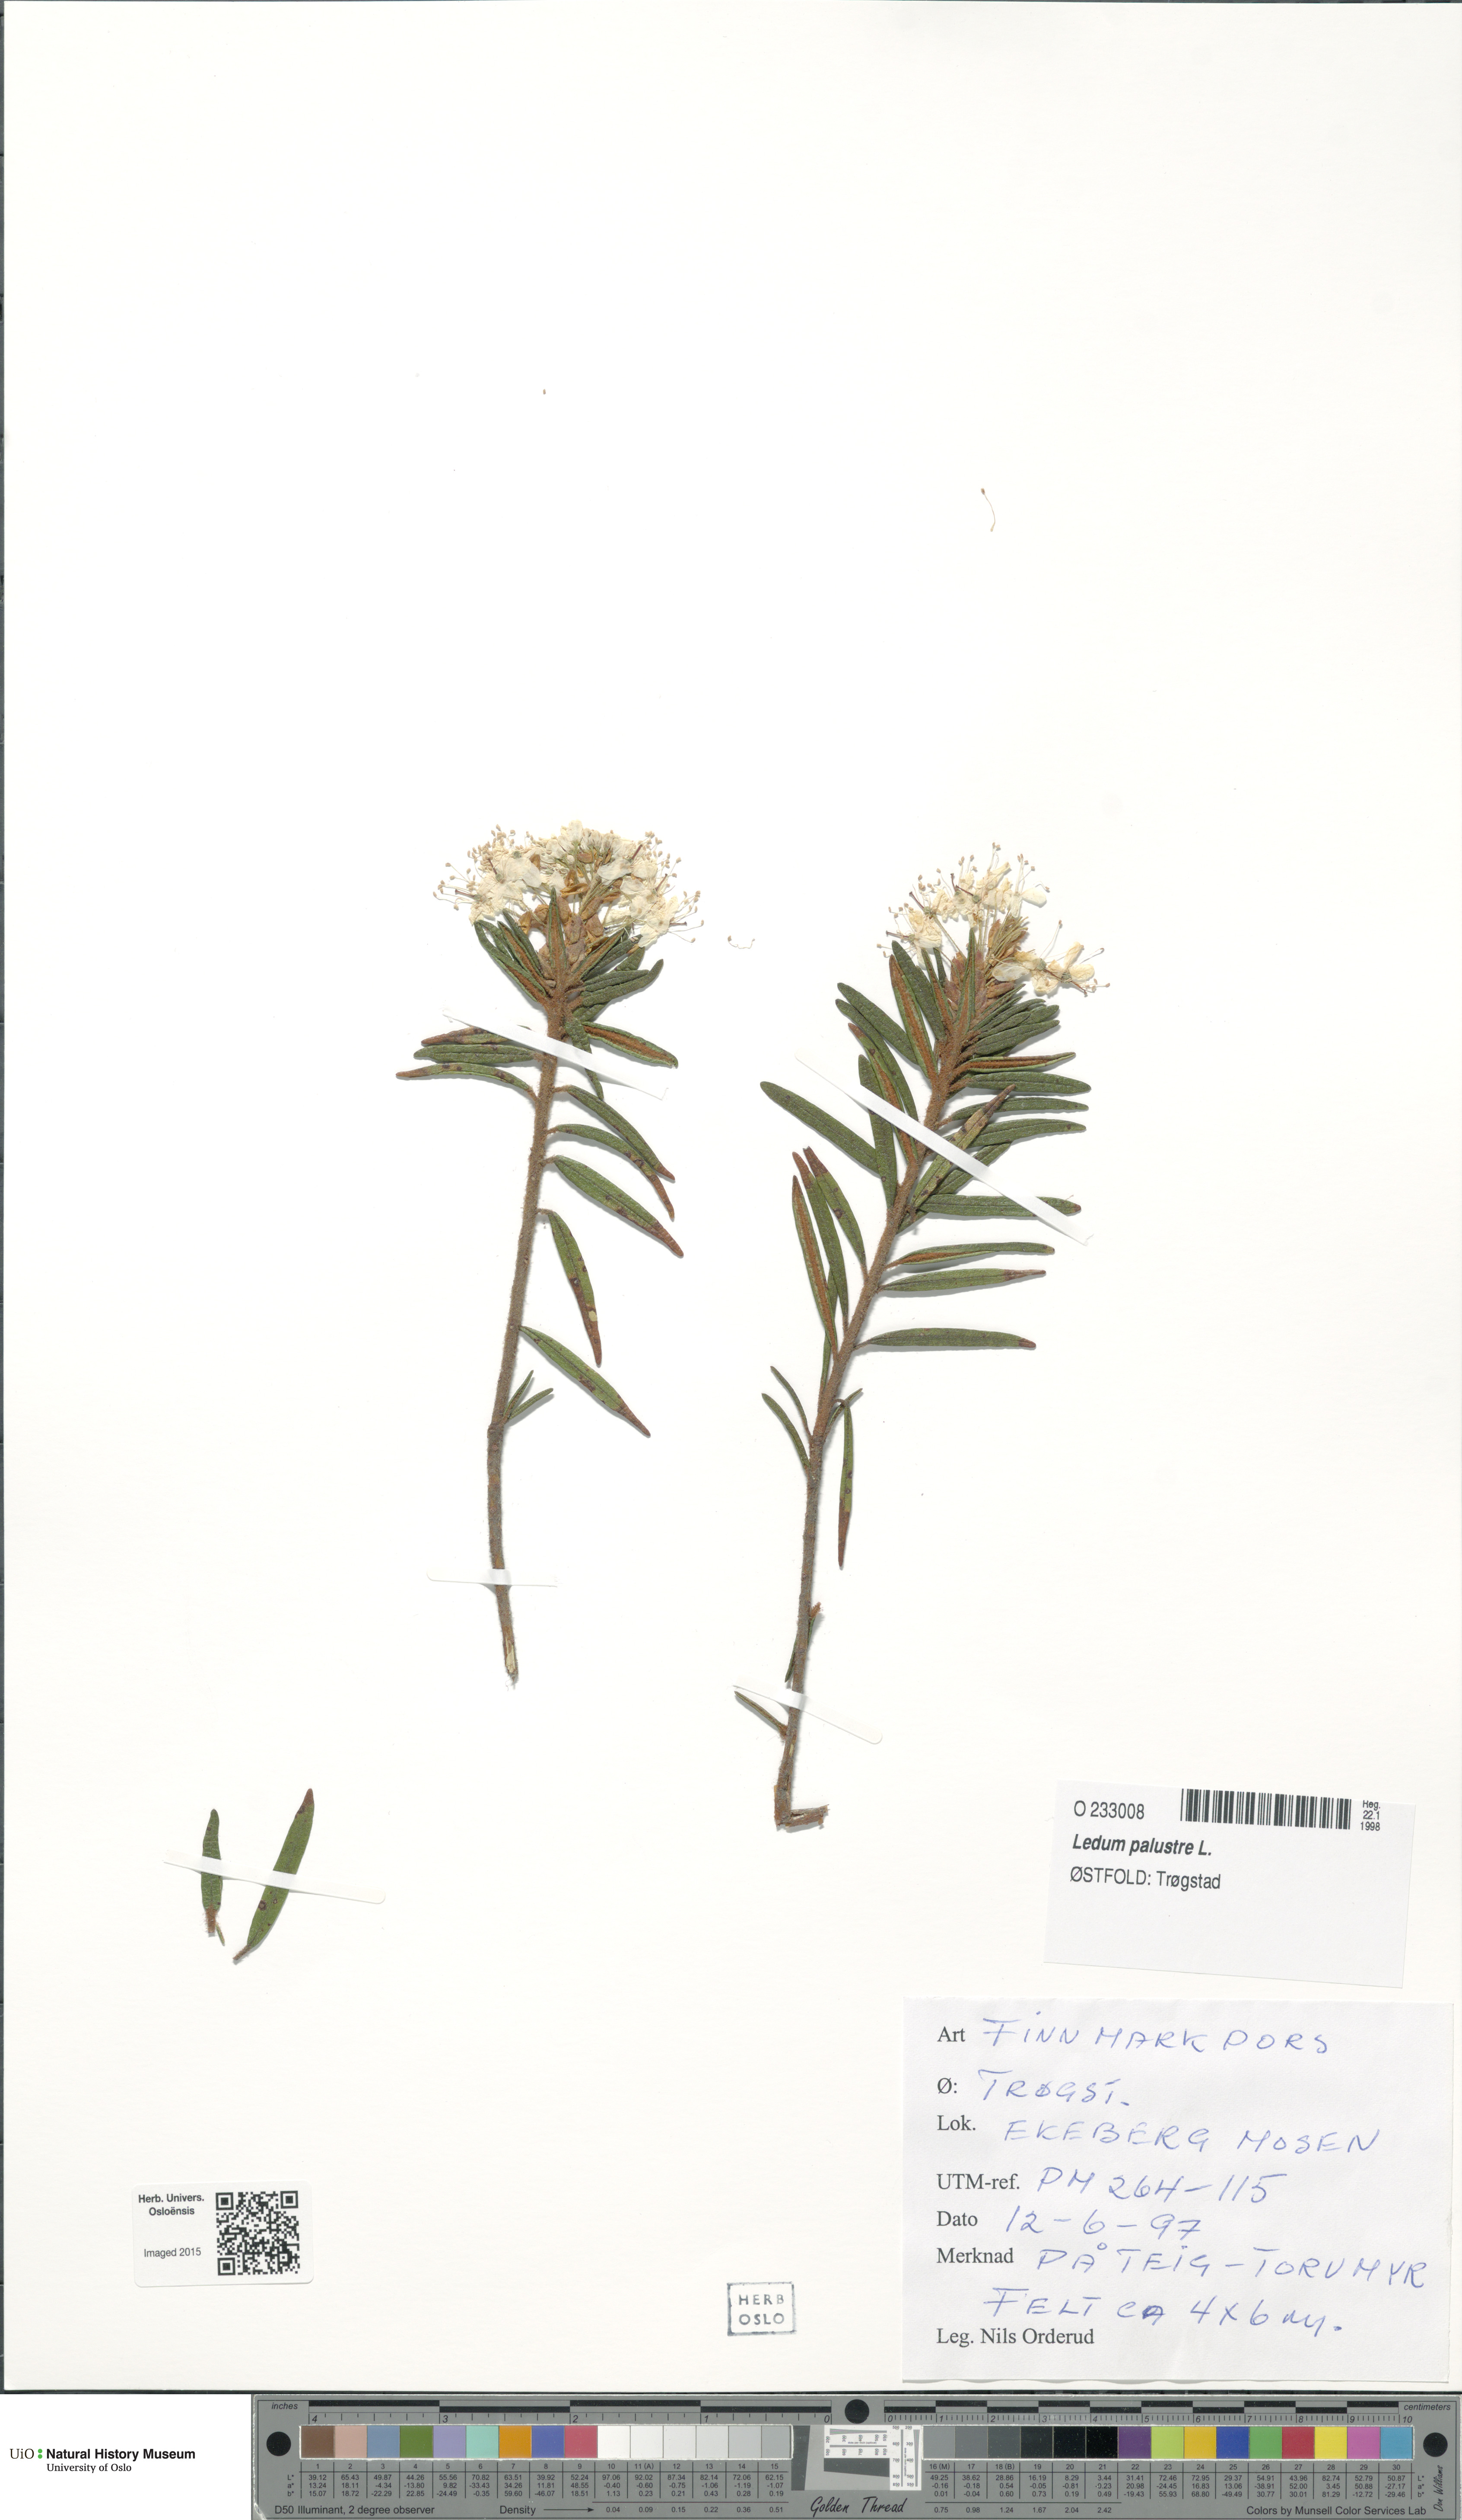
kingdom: Plantae
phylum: Tracheophyta
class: Magnoliopsida
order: Ericales
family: Ericaceae
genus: Rhododendron
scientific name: Rhododendron tomentosum
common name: Marsh labrador tea
